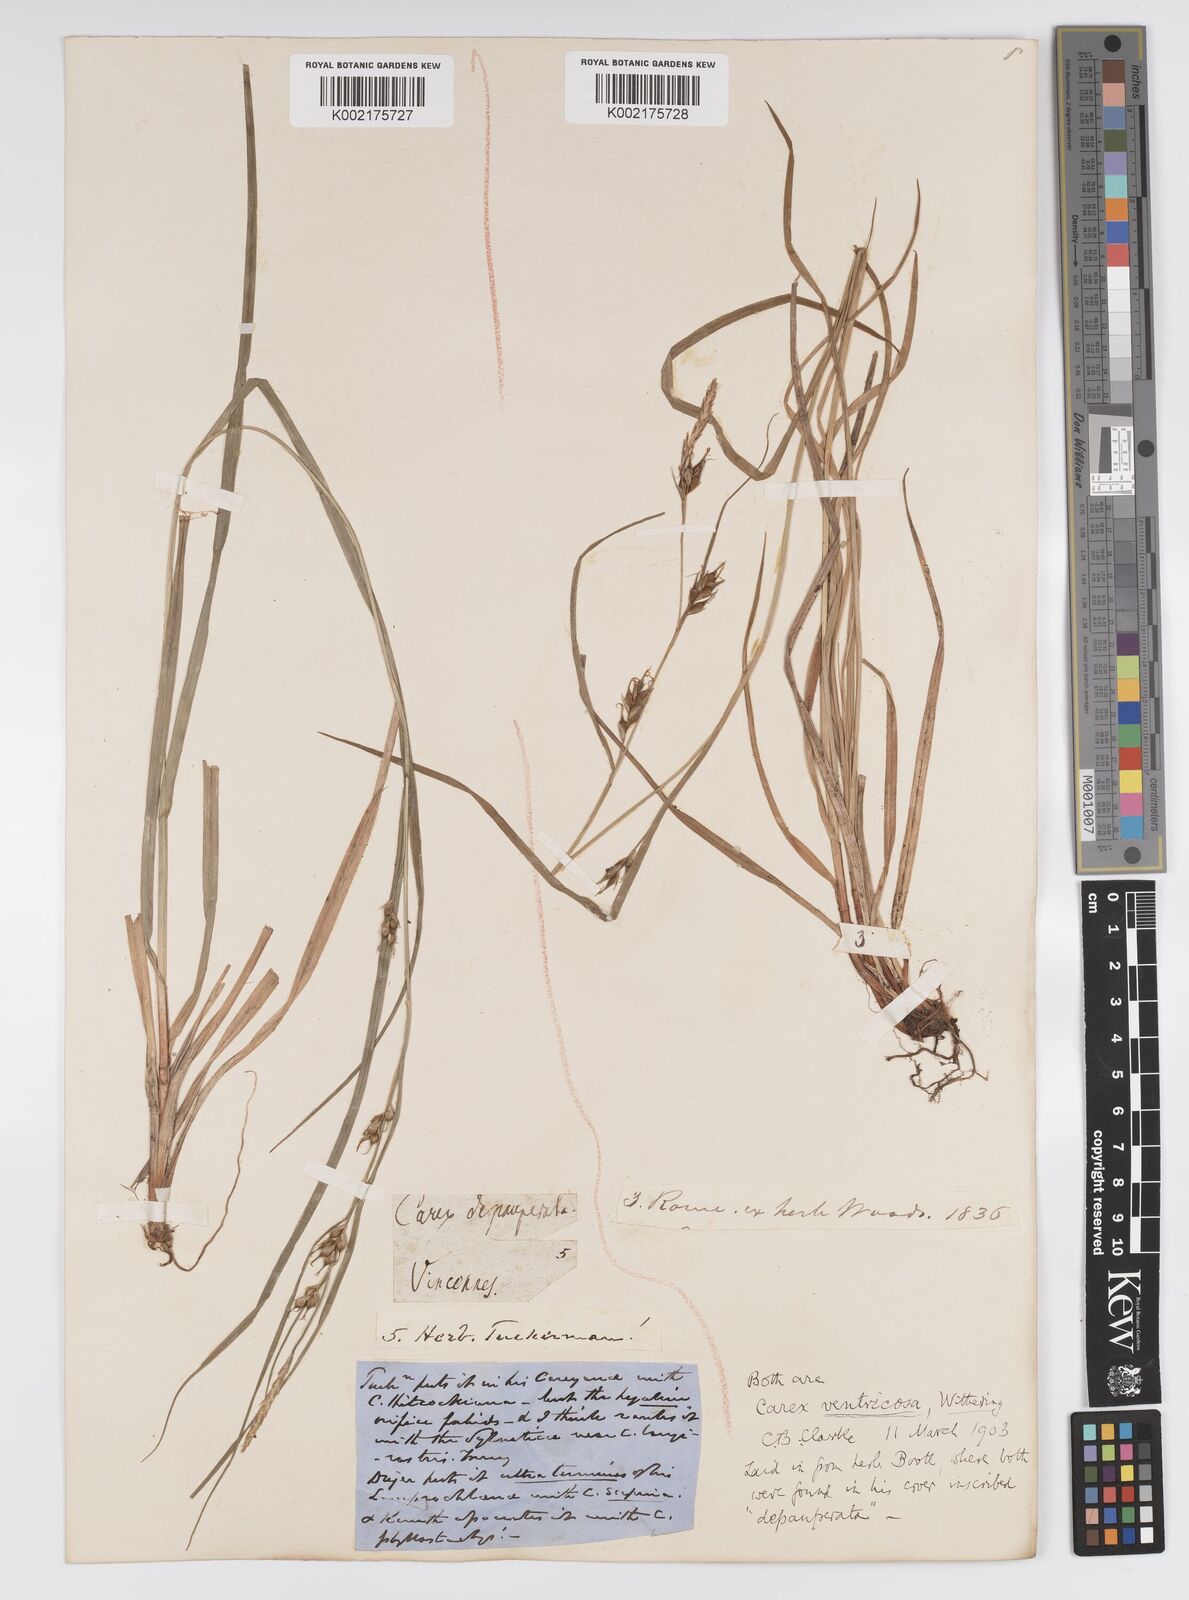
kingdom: Plantae
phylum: Tracheophyta
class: Liliopsida
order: Poales
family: Cyperaceae
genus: Carex
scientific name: Carex
